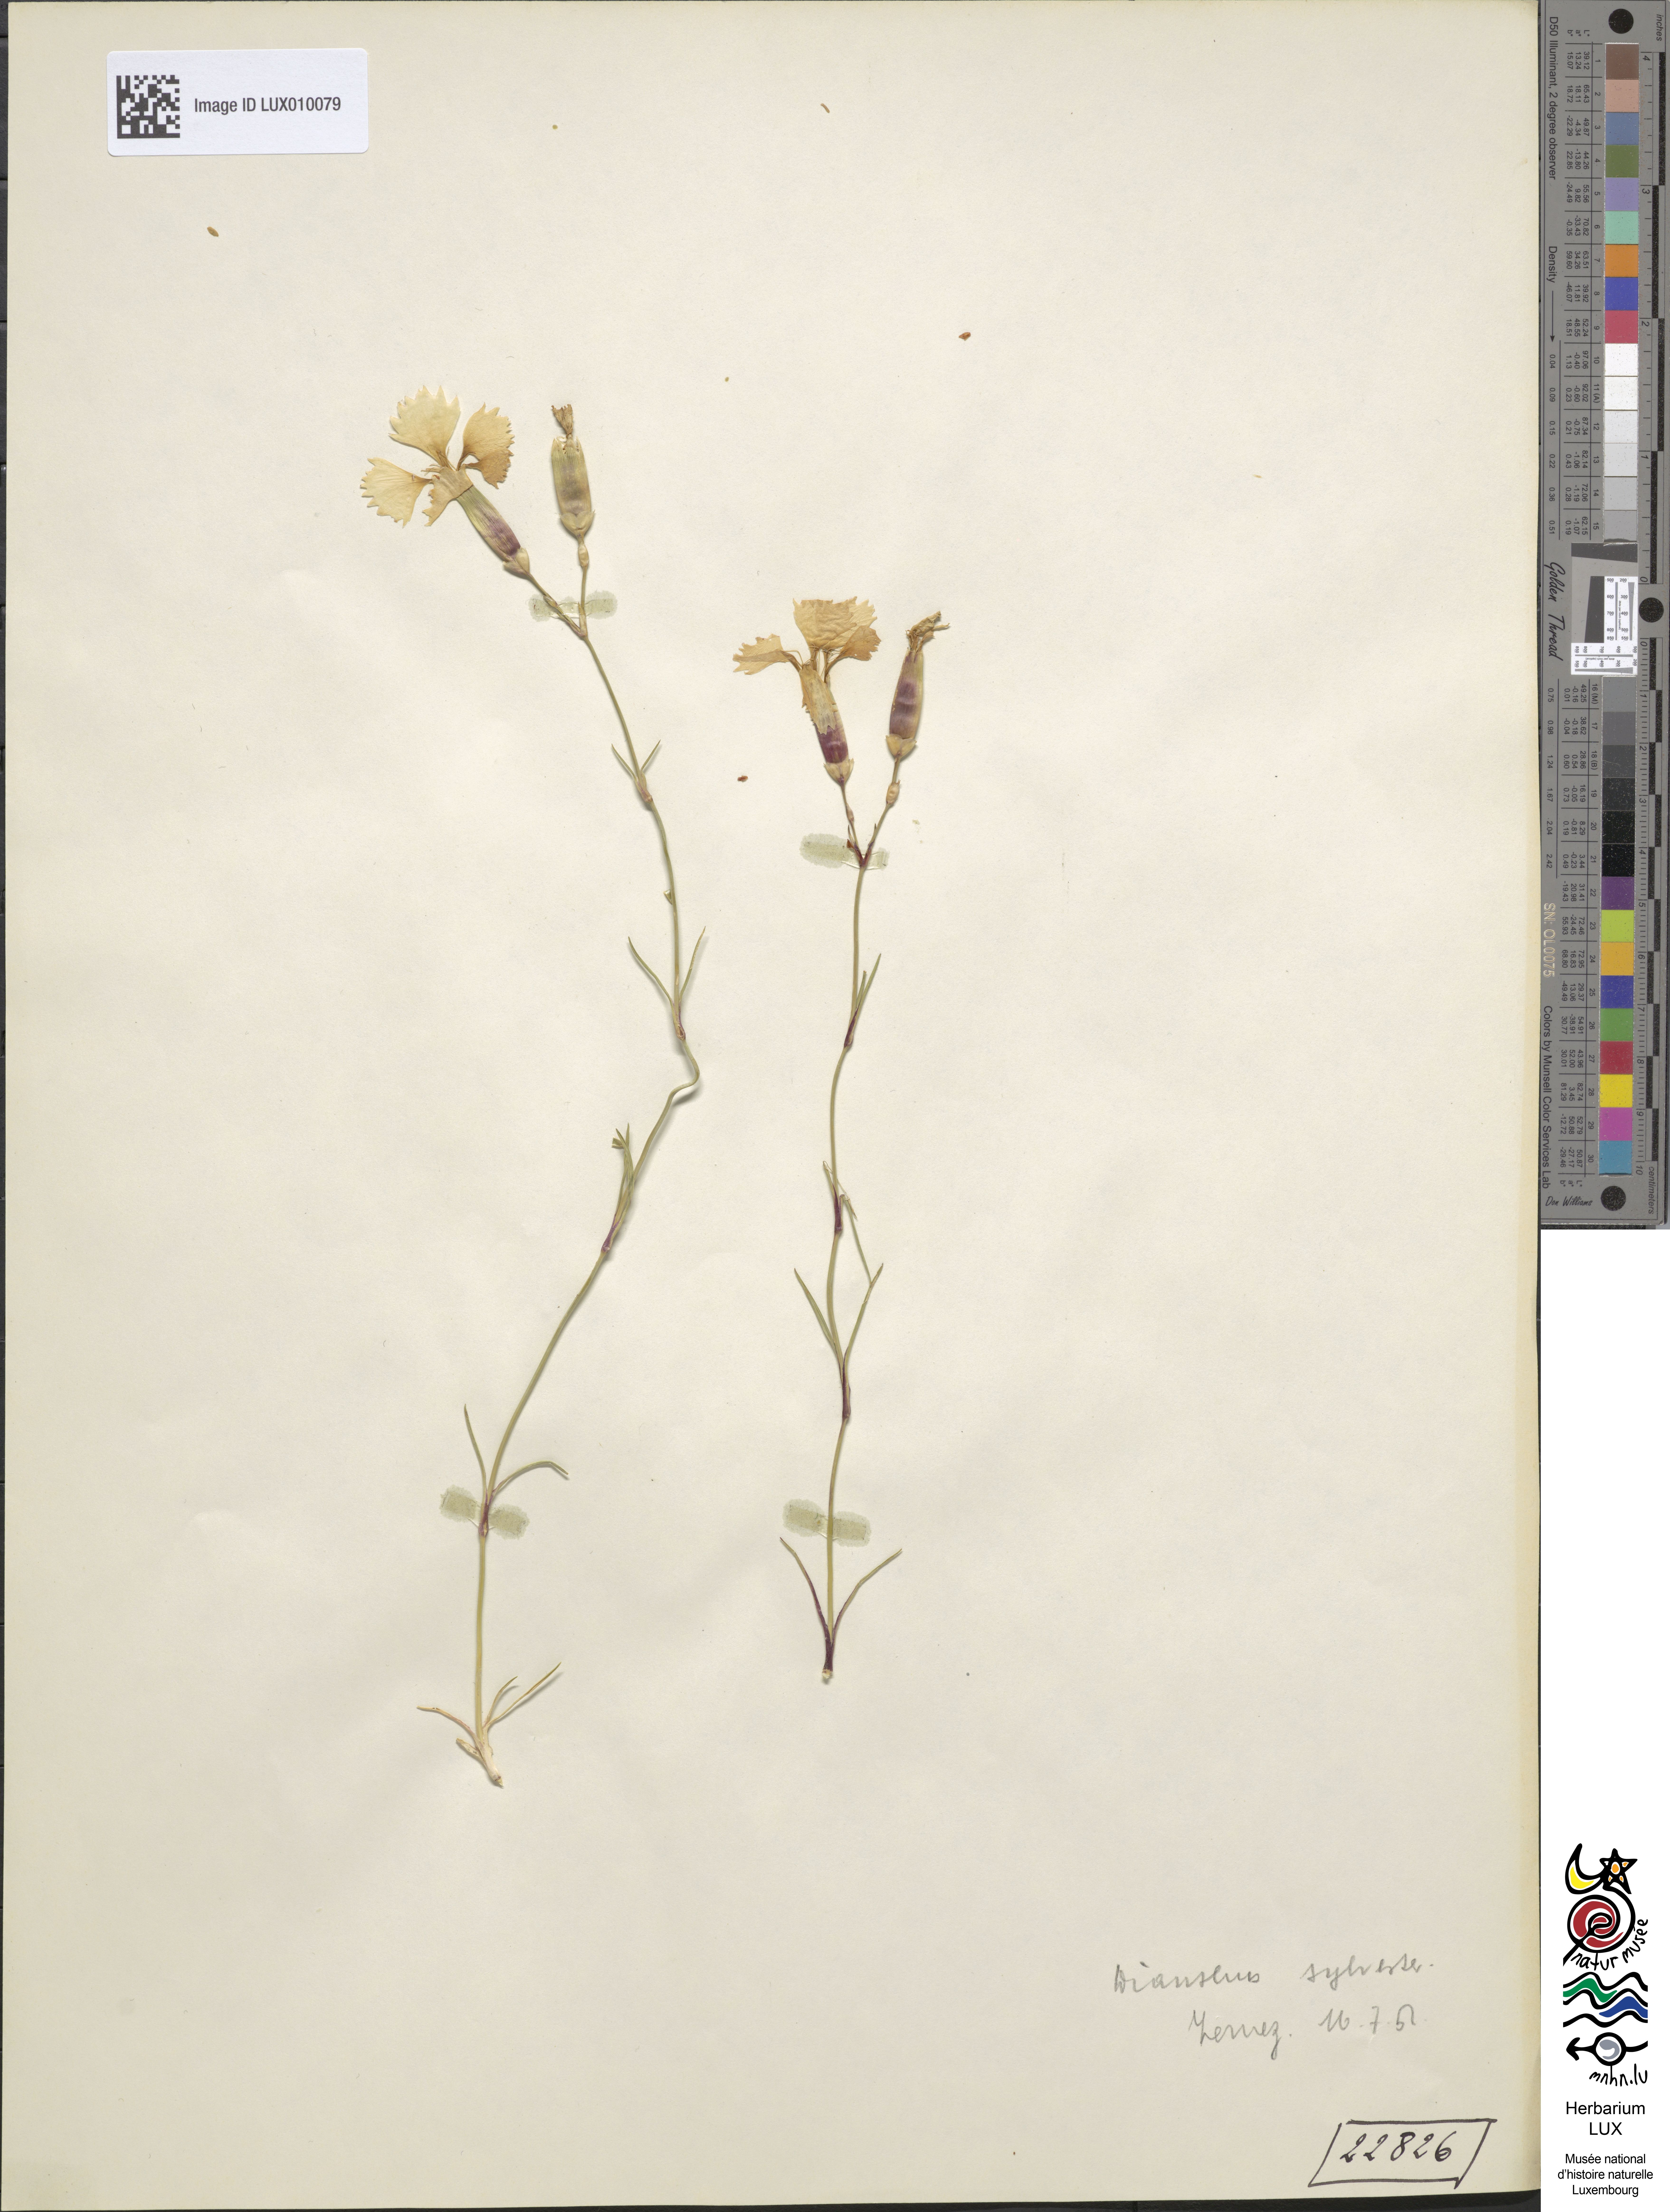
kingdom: Plantae
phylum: Tracheophyta
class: Magnoliopsida
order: Caryophyllales
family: Caryophyllaceae
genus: Dianthus
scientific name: Dianthus sylvestris
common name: Wood pink
